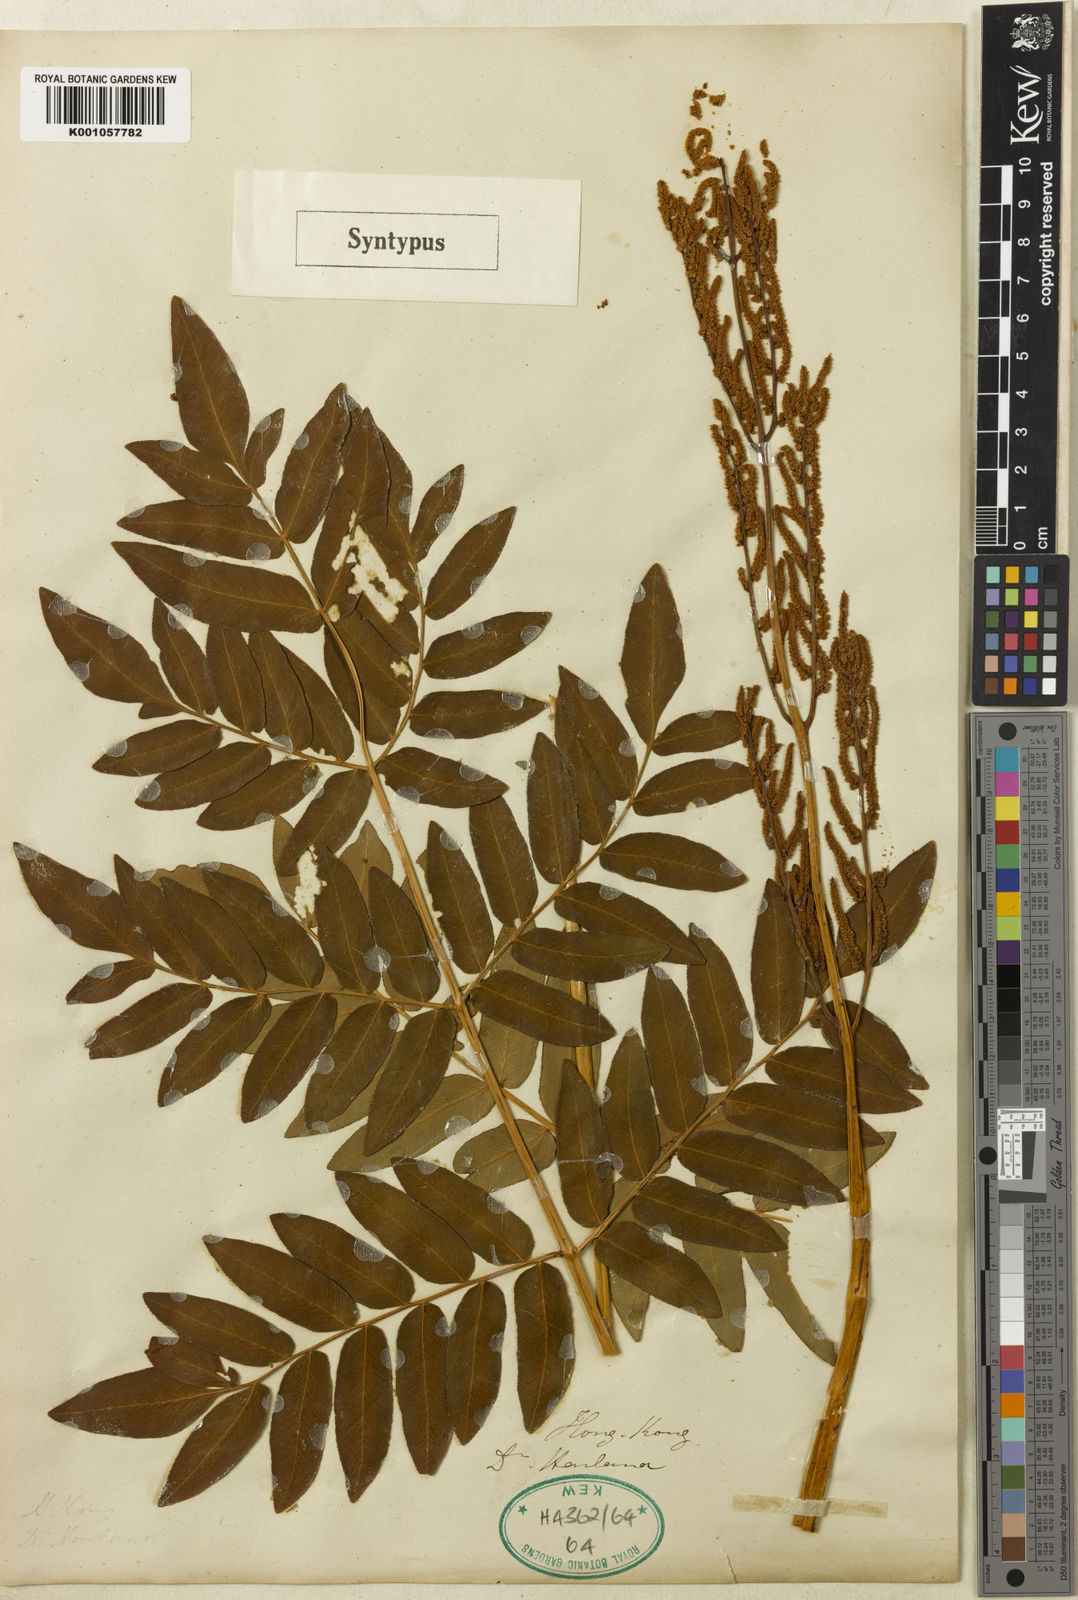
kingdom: Plantae
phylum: Tracheophyta
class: Polypodiopsida
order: Osmundales
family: Osmundaceae
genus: Osmunda
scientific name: Osmunda japonica
